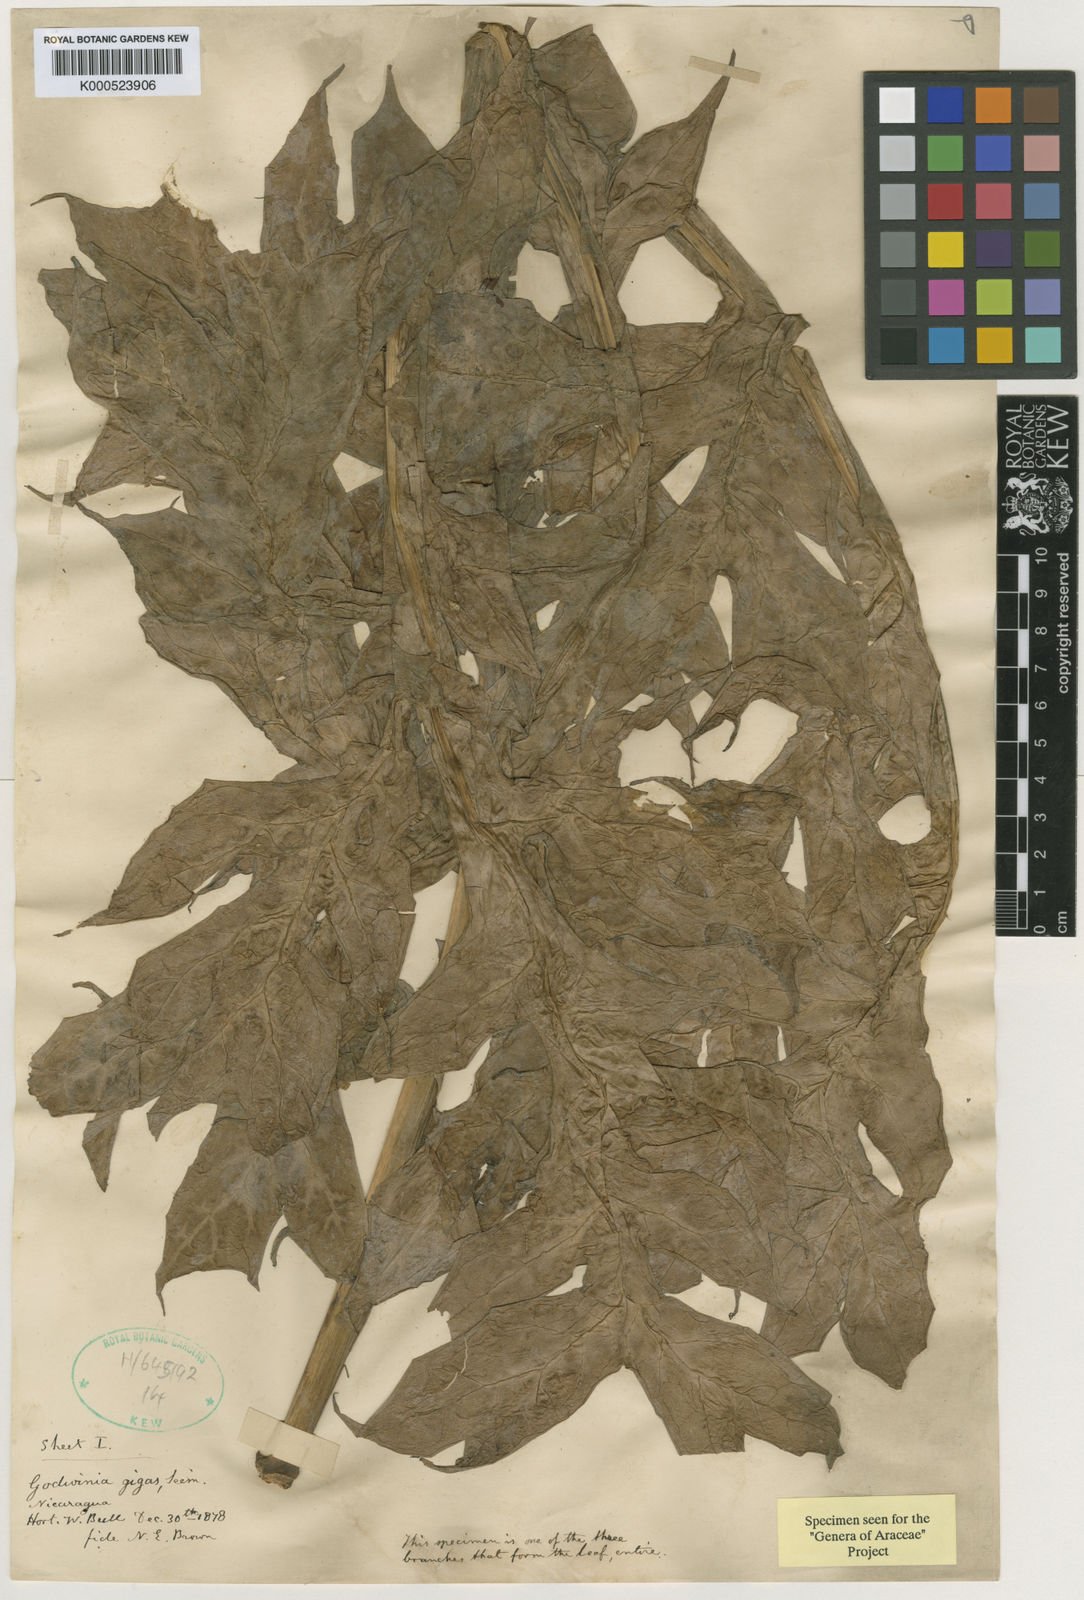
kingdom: Plantae
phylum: Tracheophyta
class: Liliopsida
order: Alismatales
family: Araceae
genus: Dracontium
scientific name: Dracontium gigas
